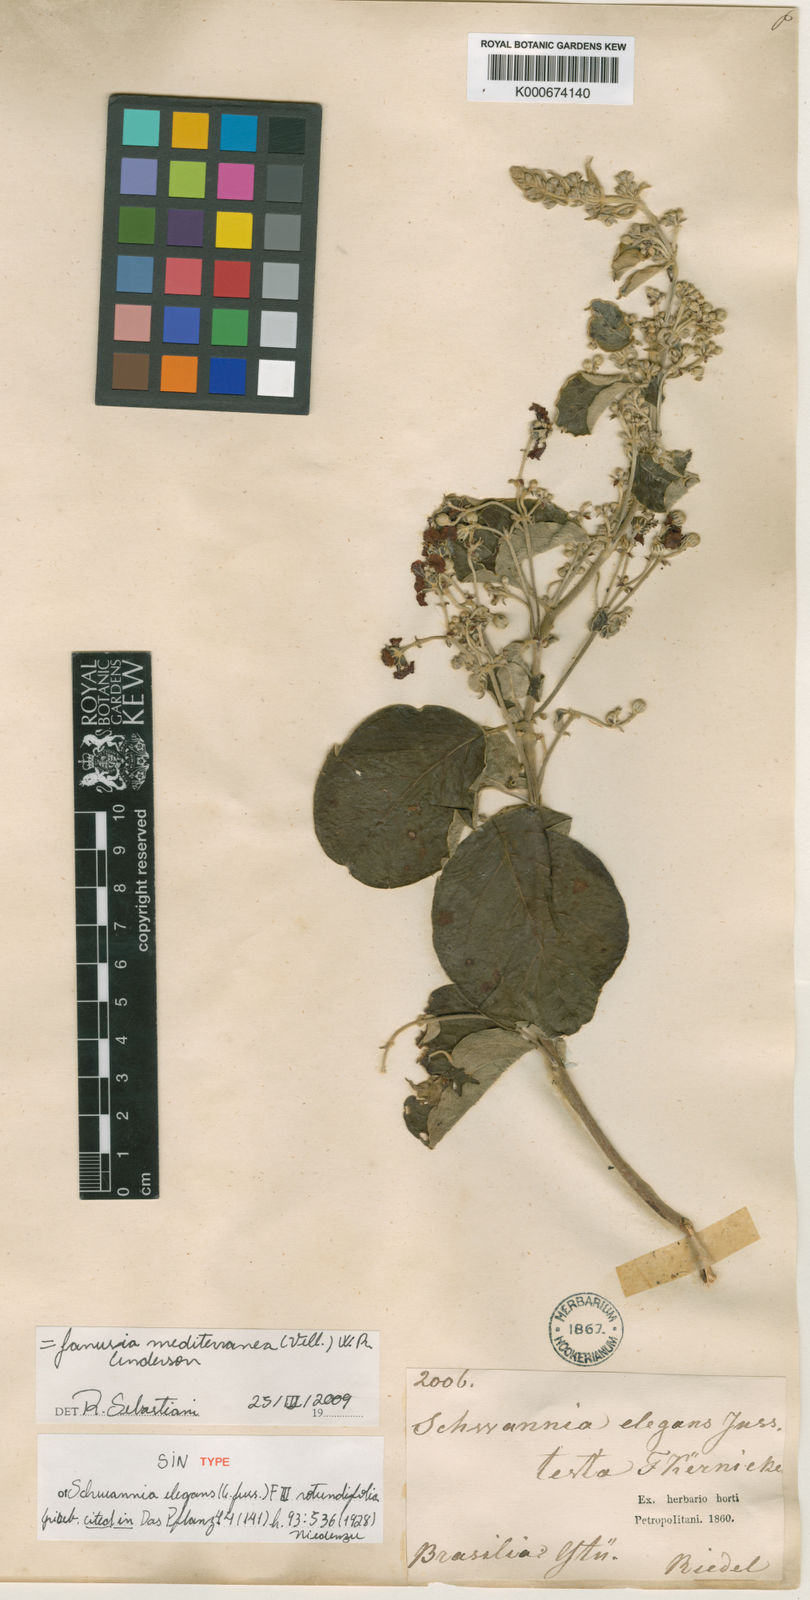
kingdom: Plantae
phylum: Tracheophyta
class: Magnoliopsida
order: Malpighiales
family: Malpighiaceae
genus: Janusia
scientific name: Janusia mediterranea
